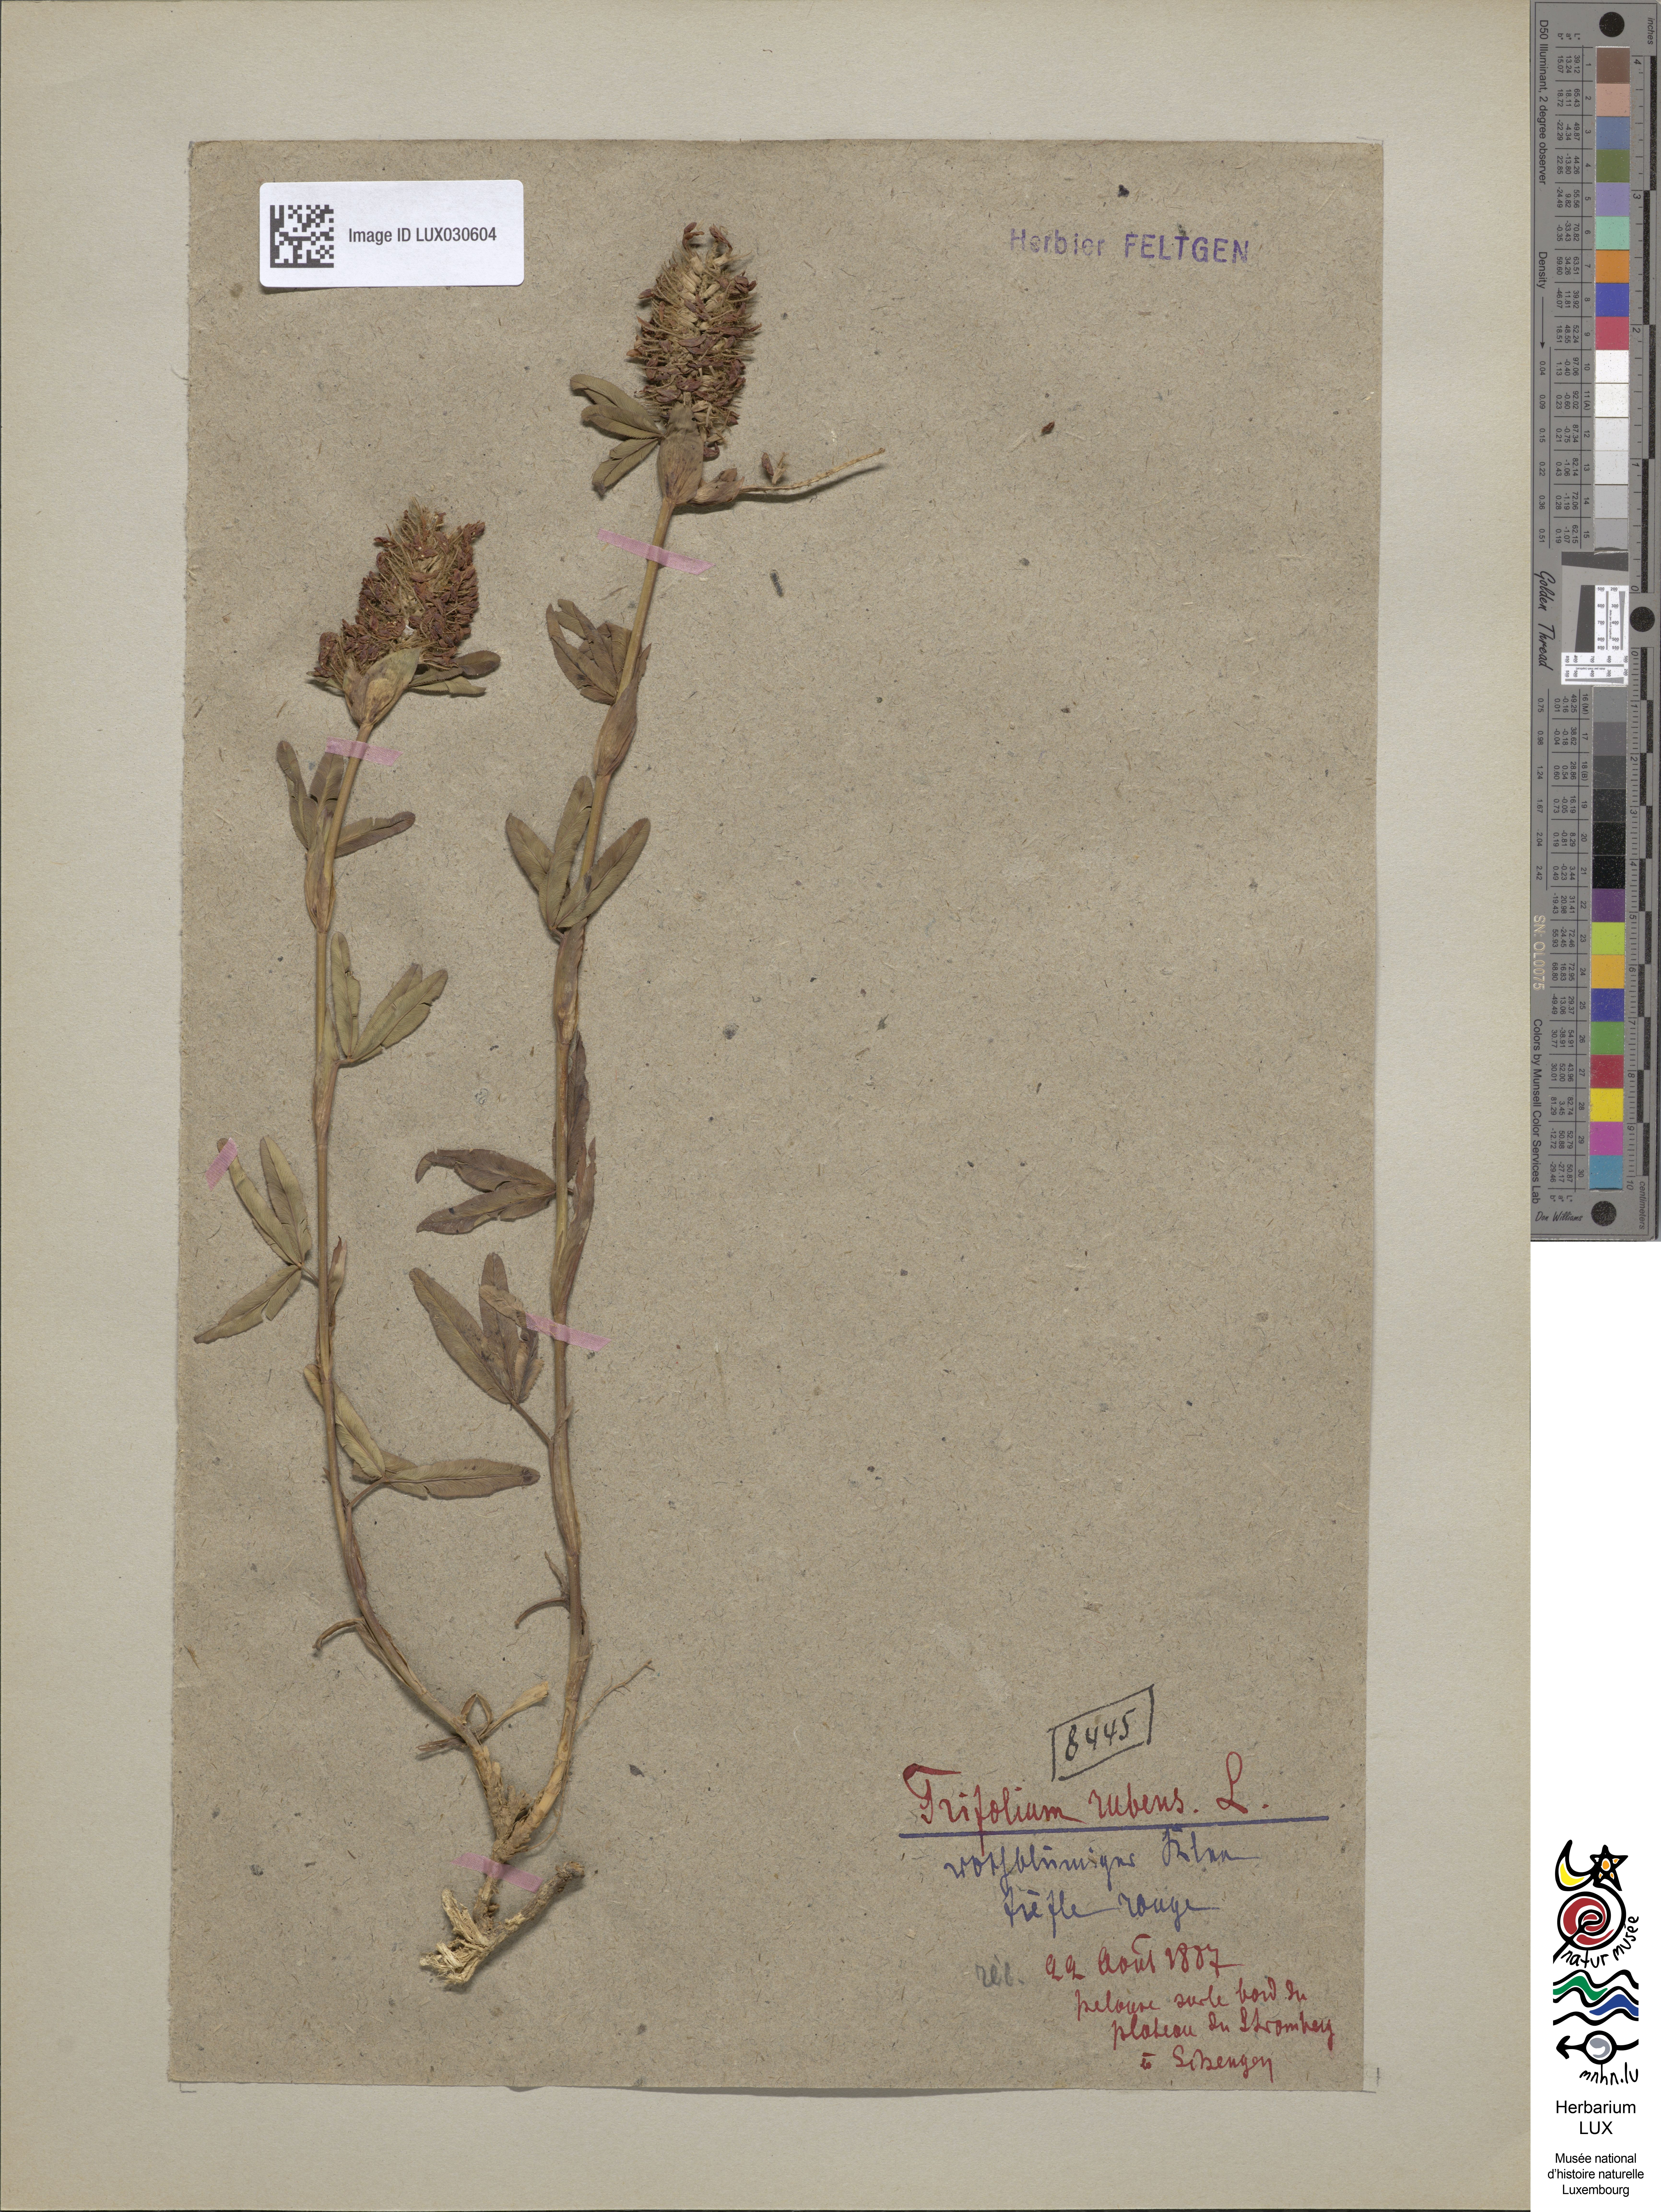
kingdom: Plantae
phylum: Tracheophyta
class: Magnoliopsida
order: Fabales
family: Fabaceae
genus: Trifolium
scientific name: Trifolium rubens
